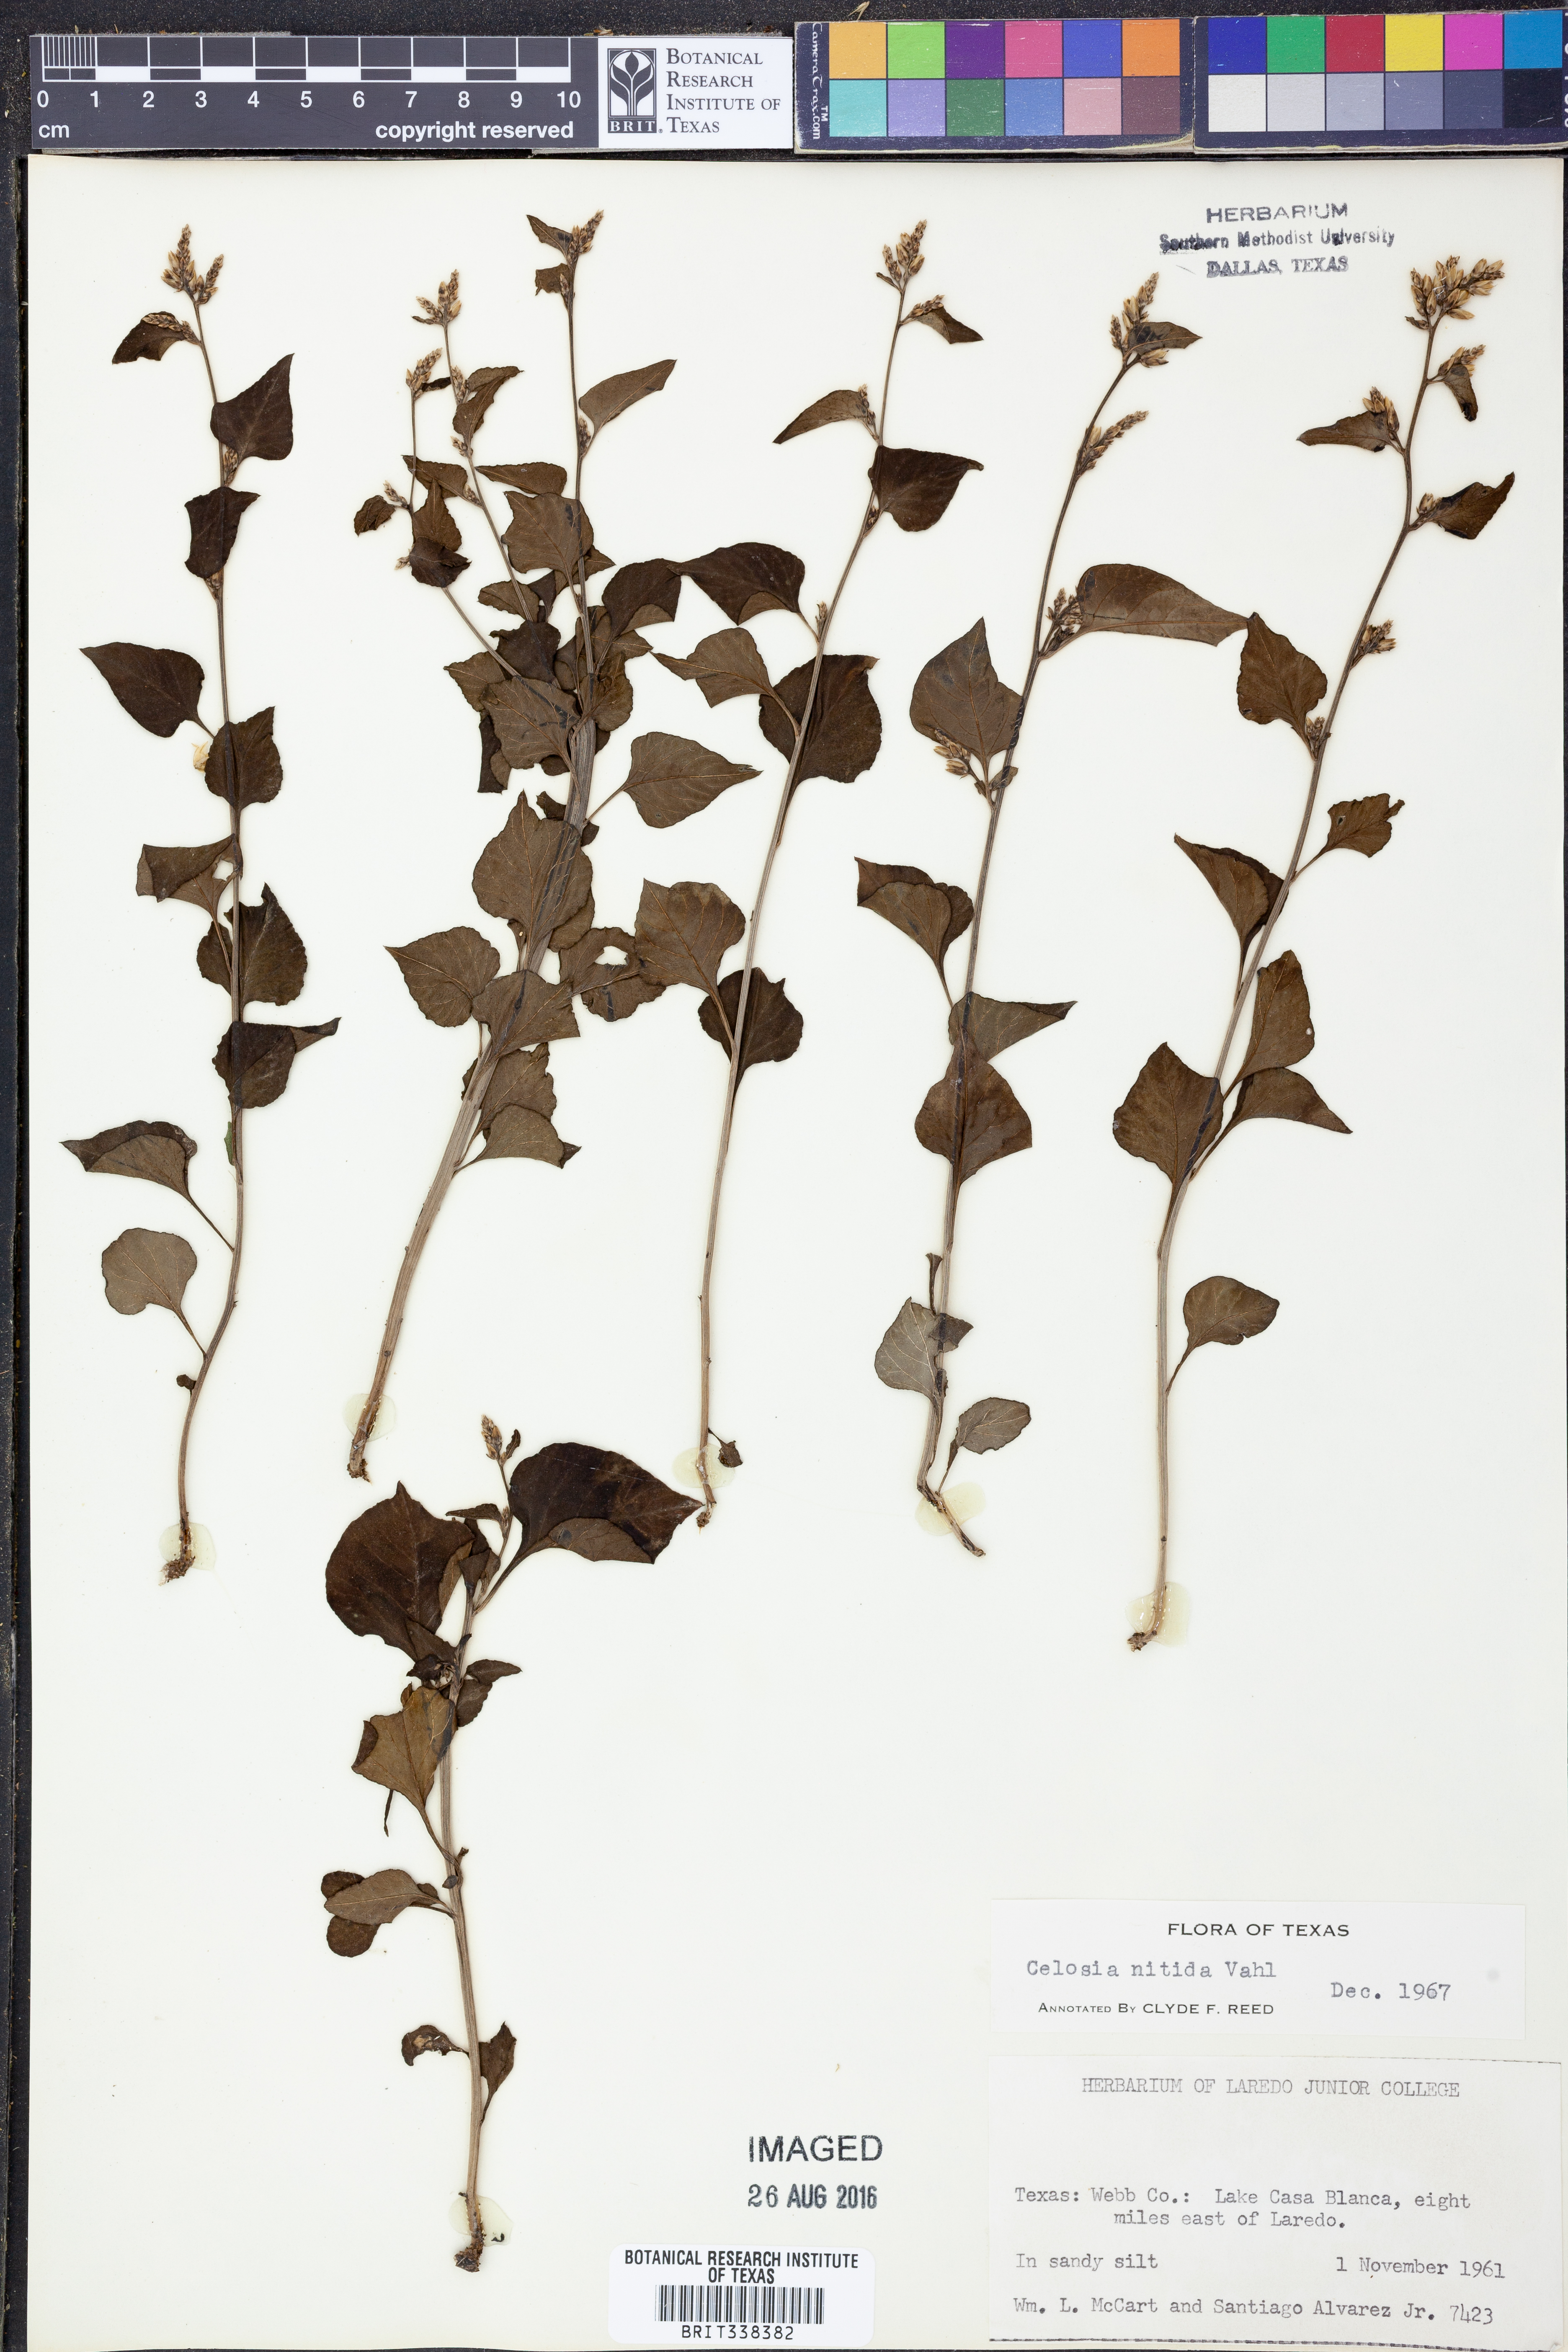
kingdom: Plantae
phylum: Tracheophyta
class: Magnoliopsida
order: Caryophyllales
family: Amaranthaceae
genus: Celosia
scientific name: Celosia nitida
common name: West indian cock's comb
